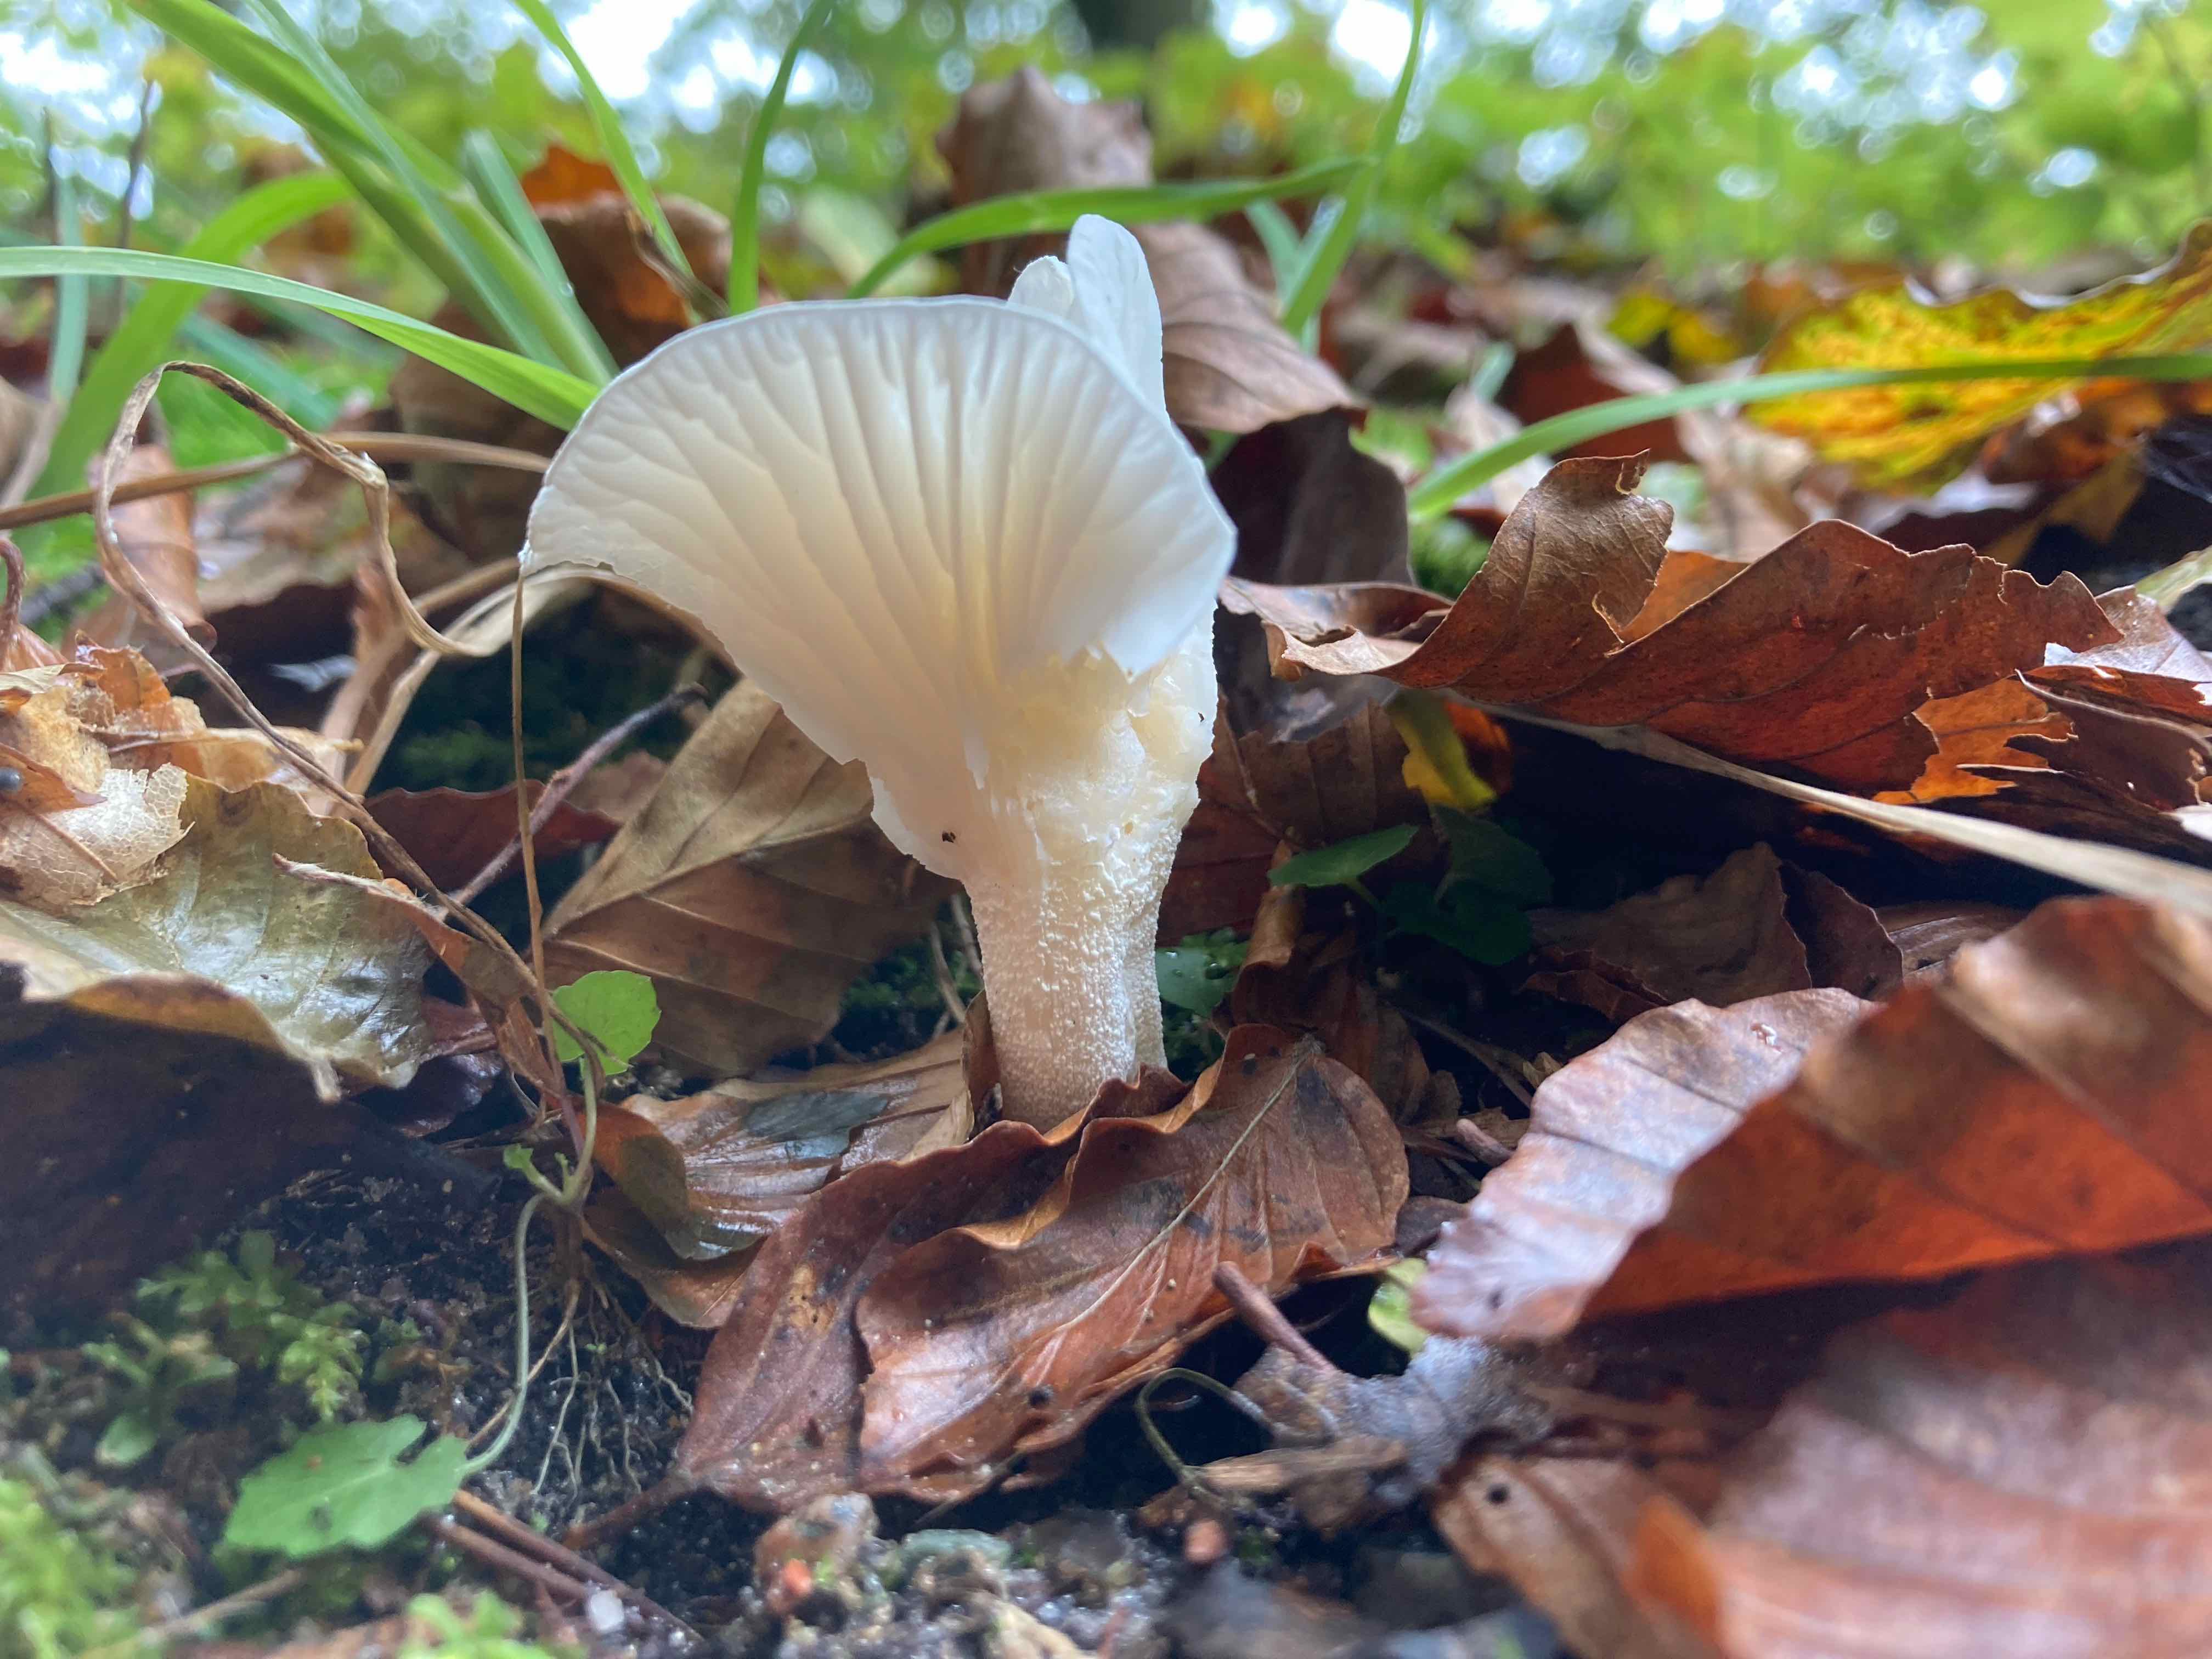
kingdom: Fungi
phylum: Basidiomycota
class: Agaricomycetes
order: Agaricales
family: Hygrophoraceae
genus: Hygrophorus
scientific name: Hygrophorus
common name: sneglehat
